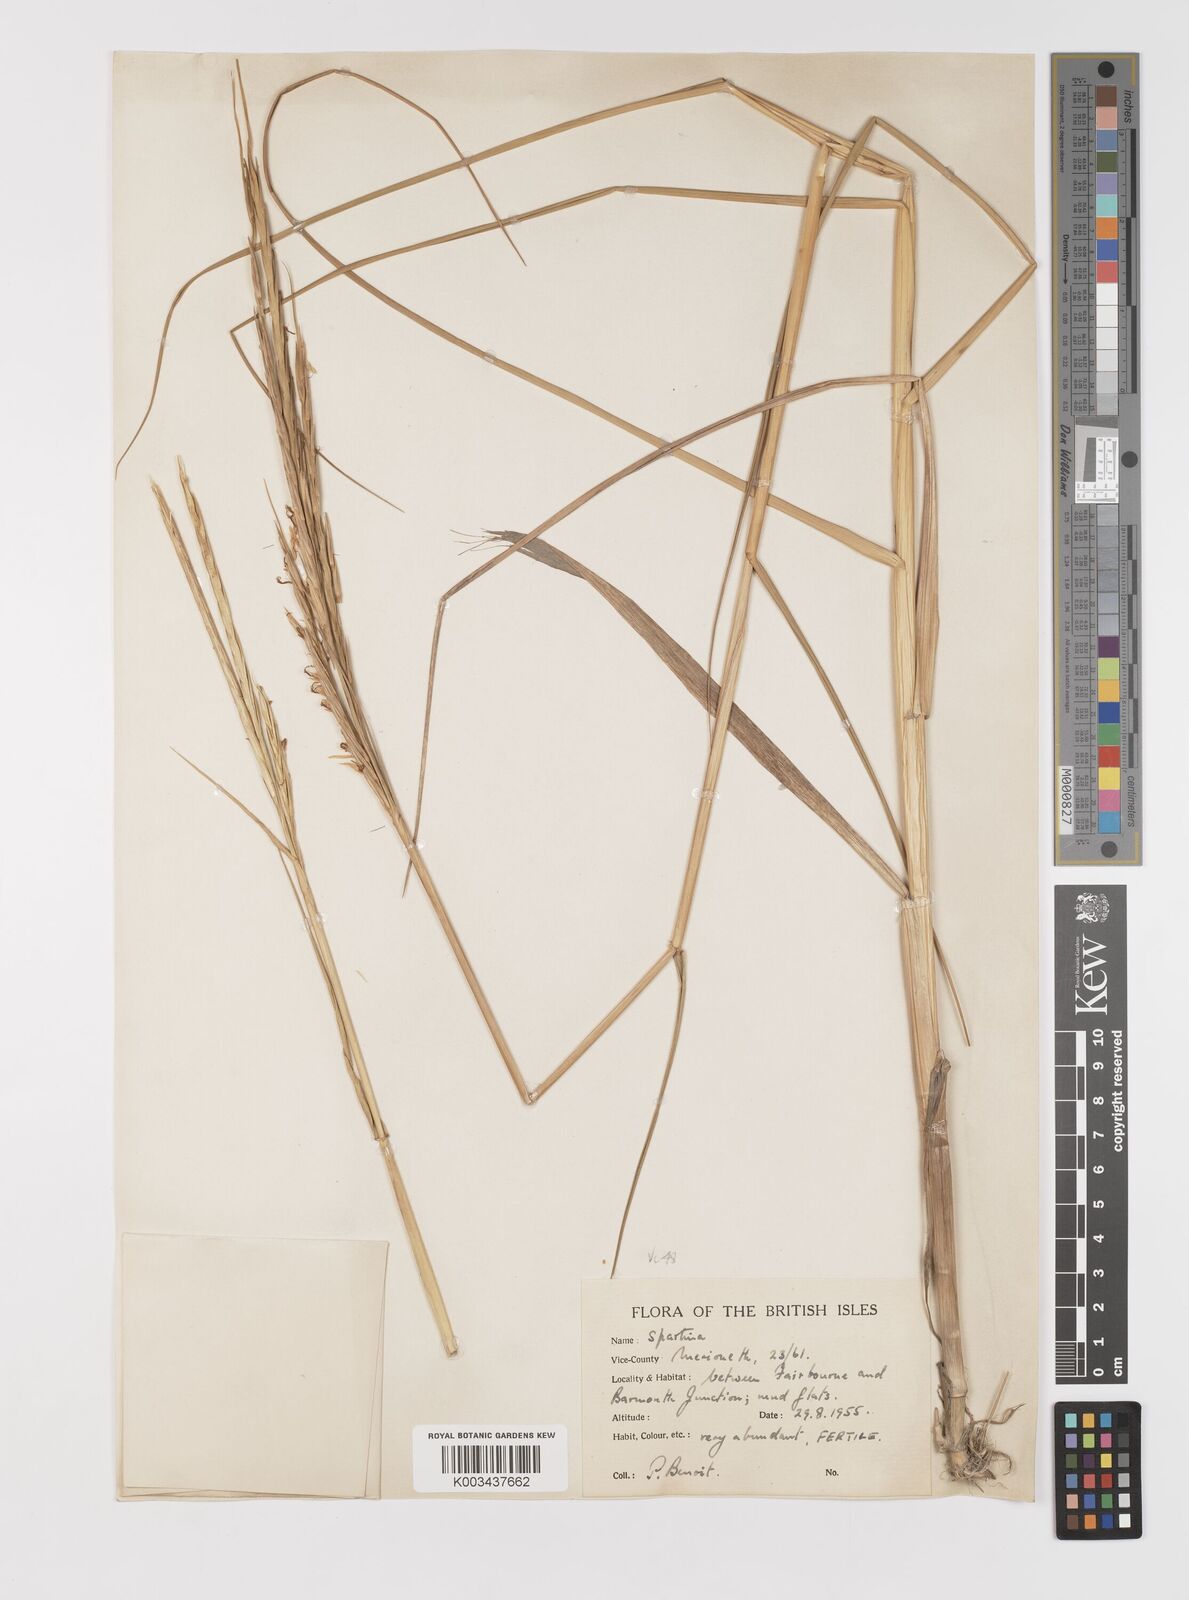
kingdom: Plantae
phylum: Tracheophyta
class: Liliopsida
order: Poales
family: Poaceae
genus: Sporobolus
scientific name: Sporobolus anglicus
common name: English cordgrass
